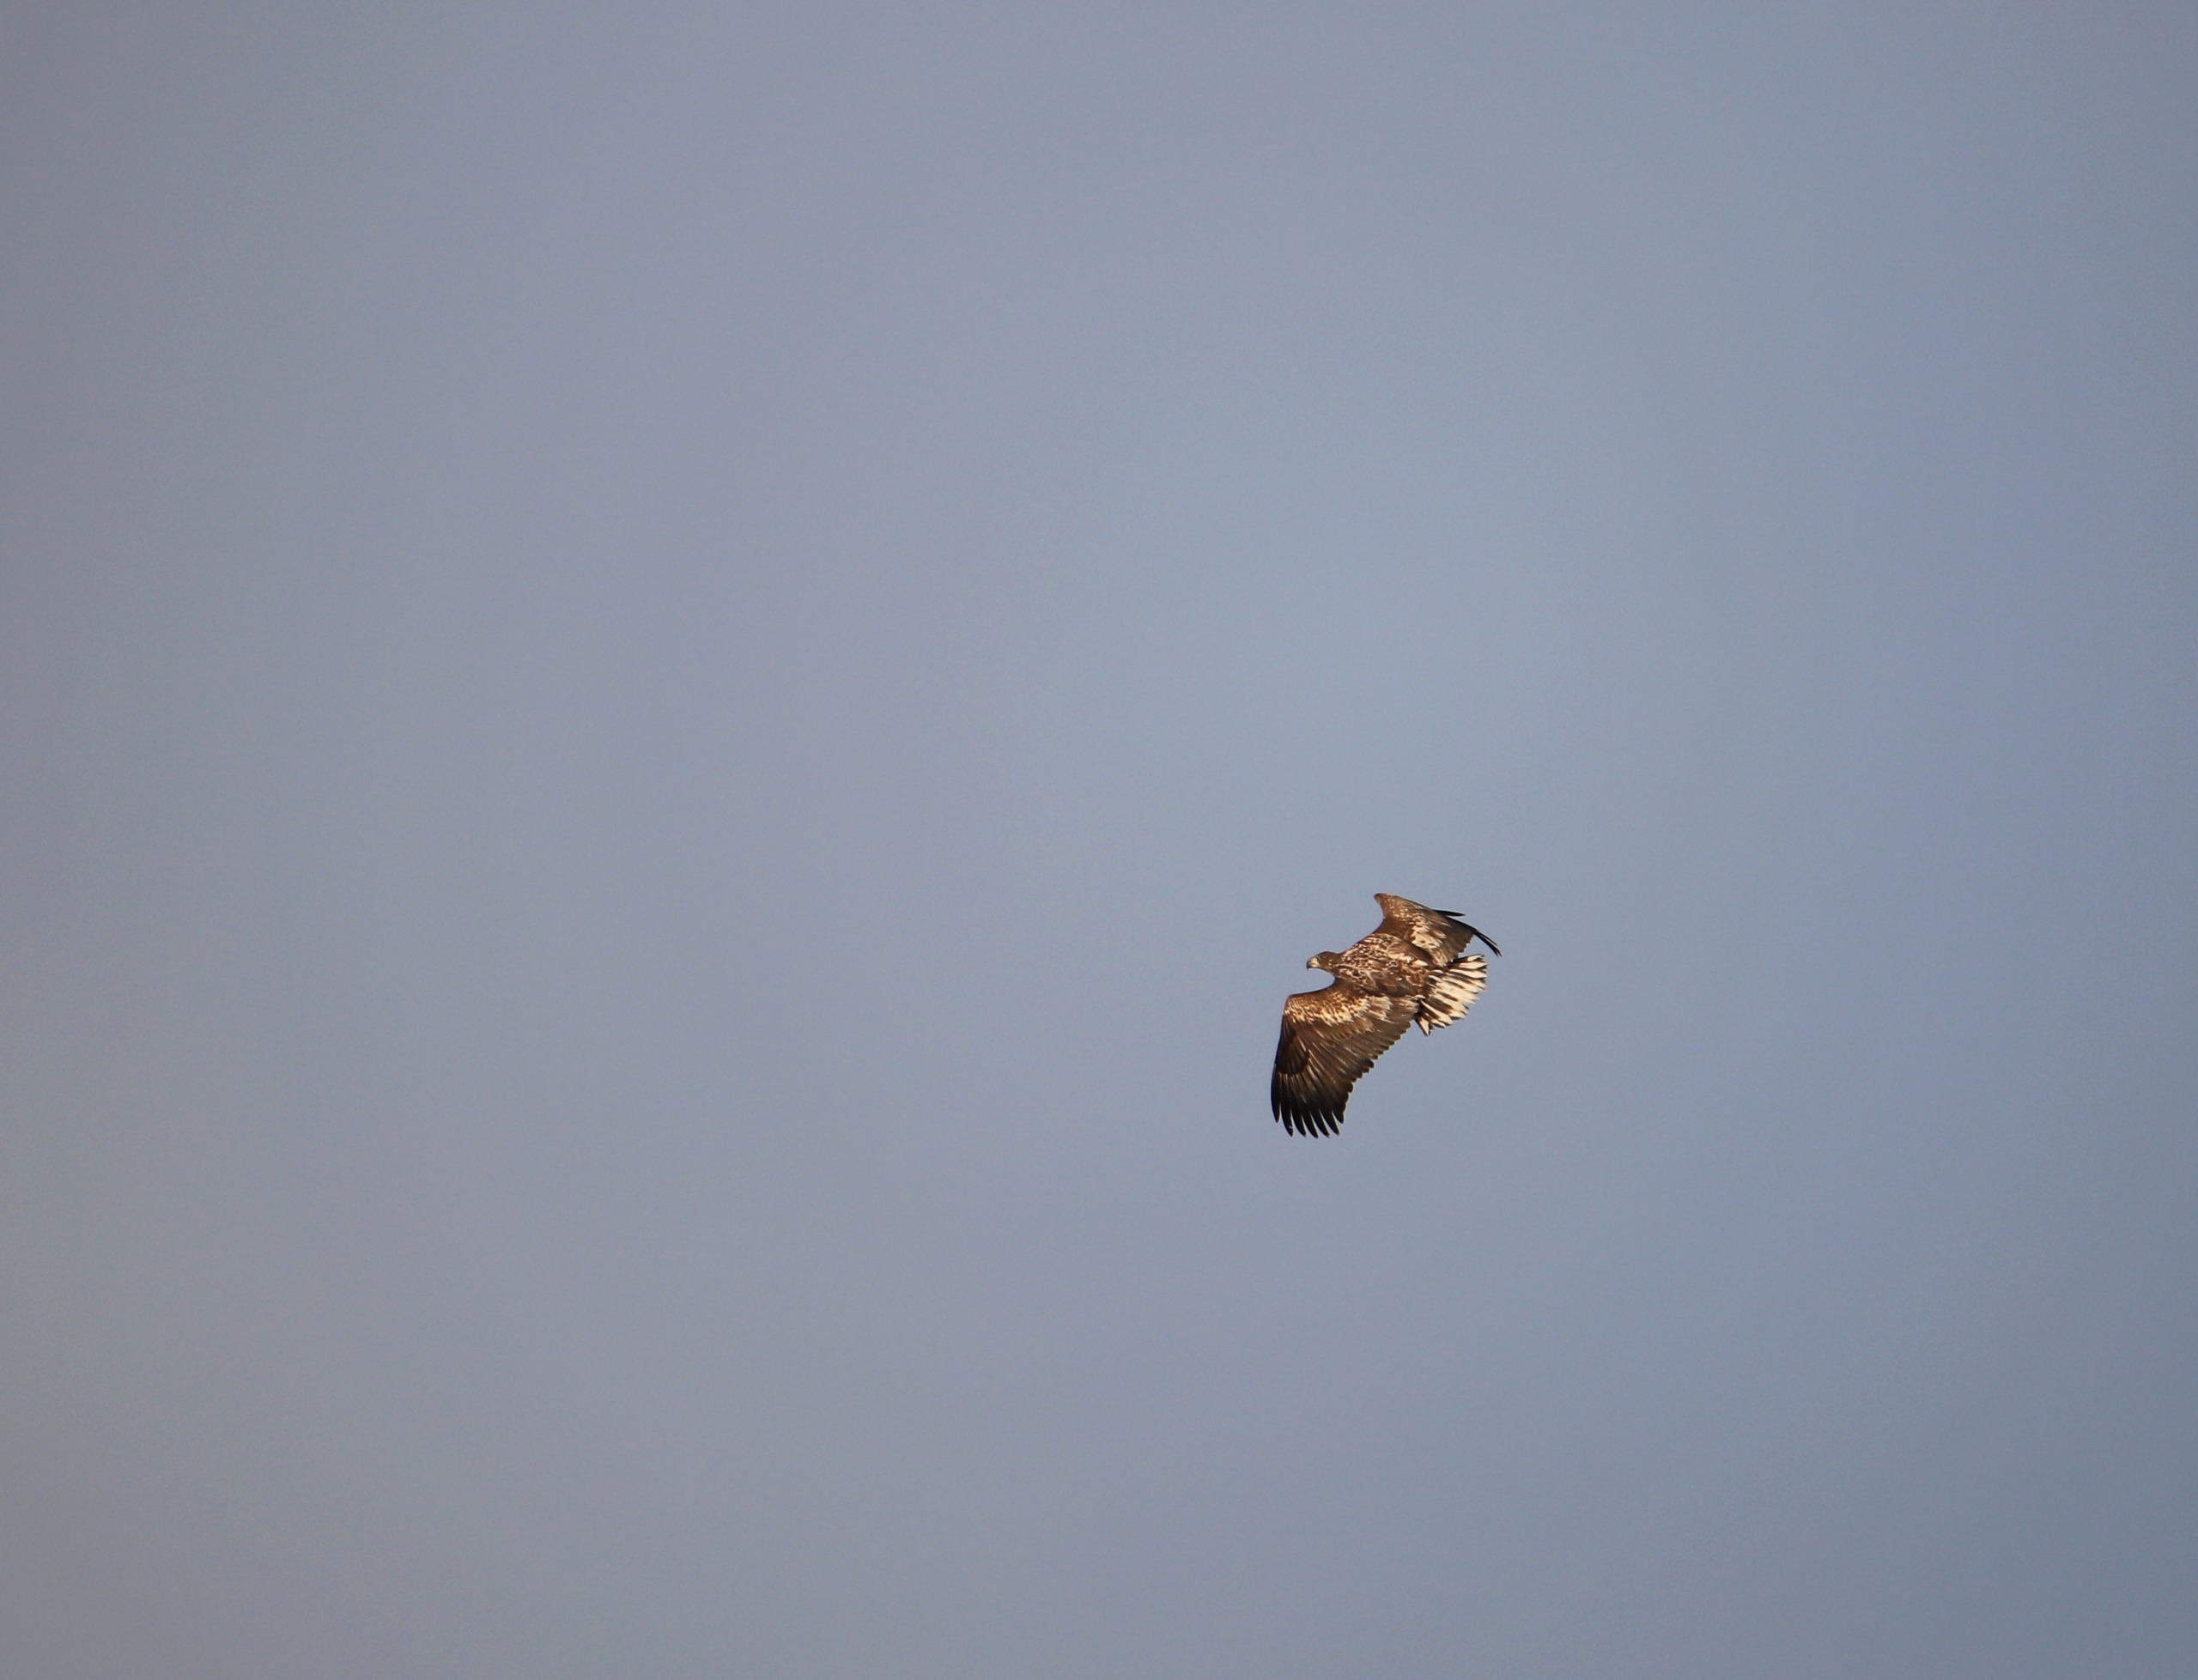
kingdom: Animalia
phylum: Chordata
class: Aves
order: Accipitriformes
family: Accipitridae
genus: Haliaeetus
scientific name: Haliaeetus albicilla
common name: Havørn
